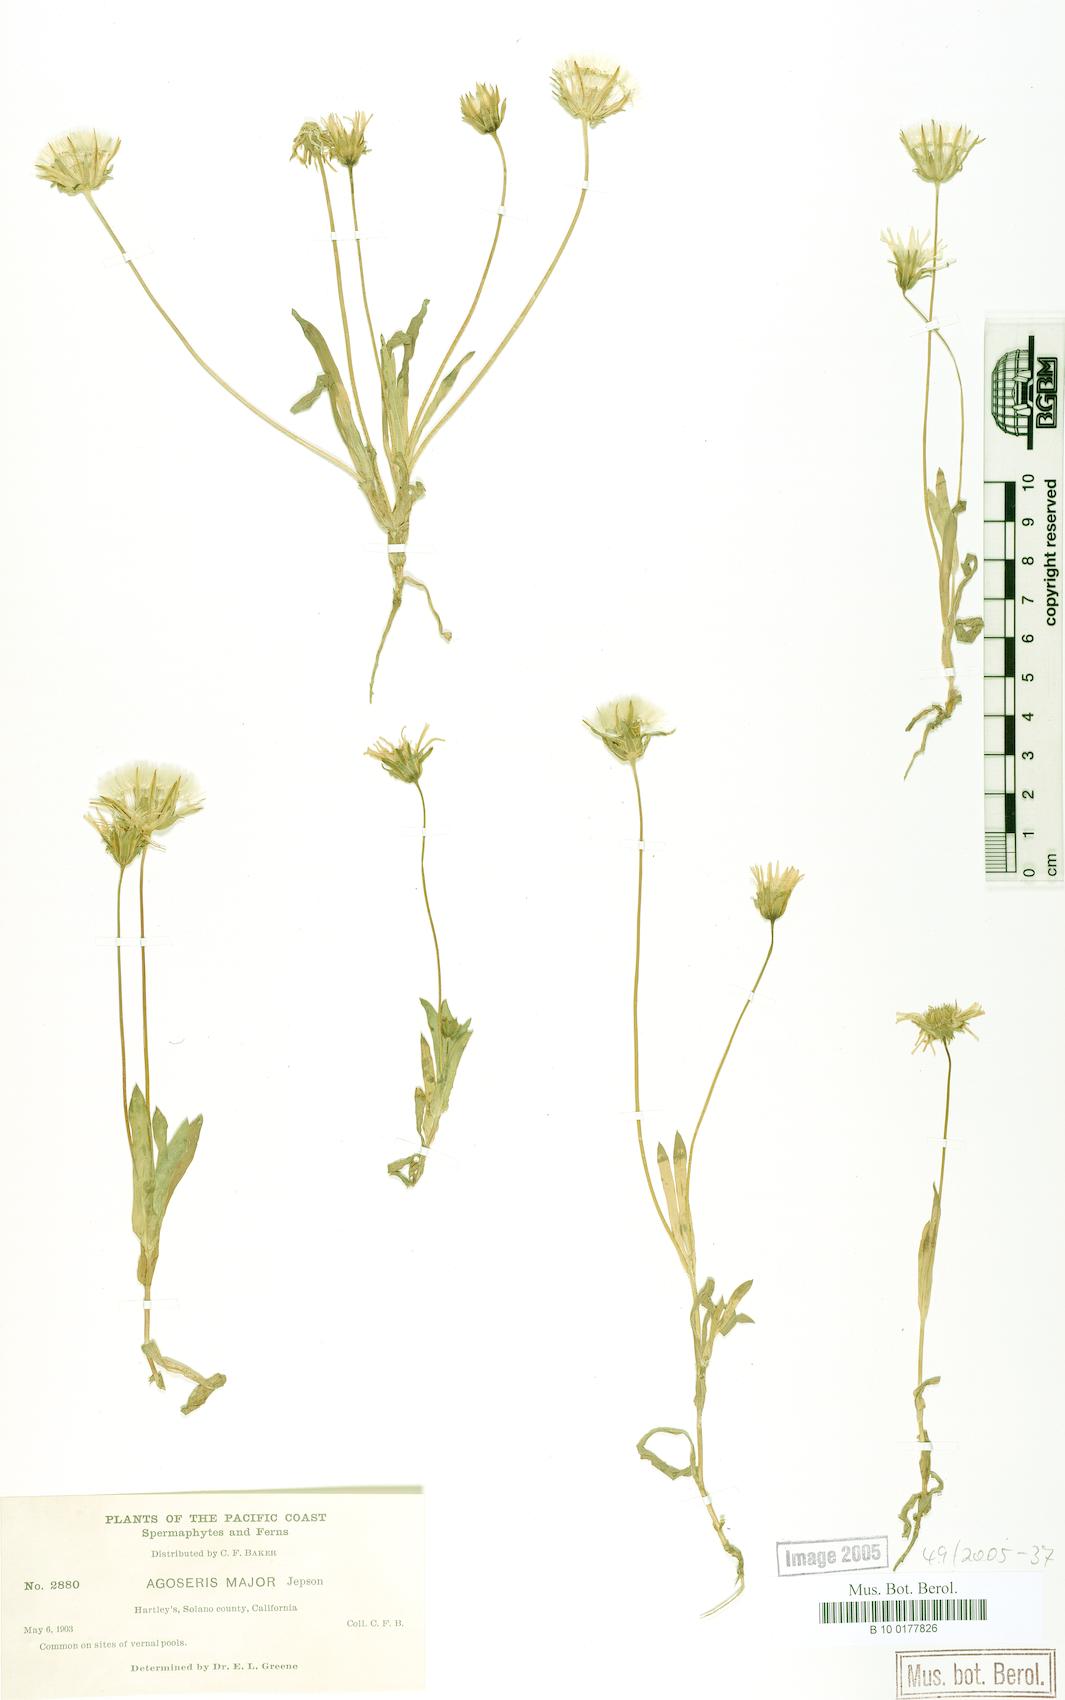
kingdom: Plantae
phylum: Tracheophyta
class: Magnoliopsida
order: Asterales
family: Asteraceae
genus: Agoseris
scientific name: Agoseris heterophylla
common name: Annual agoseris
